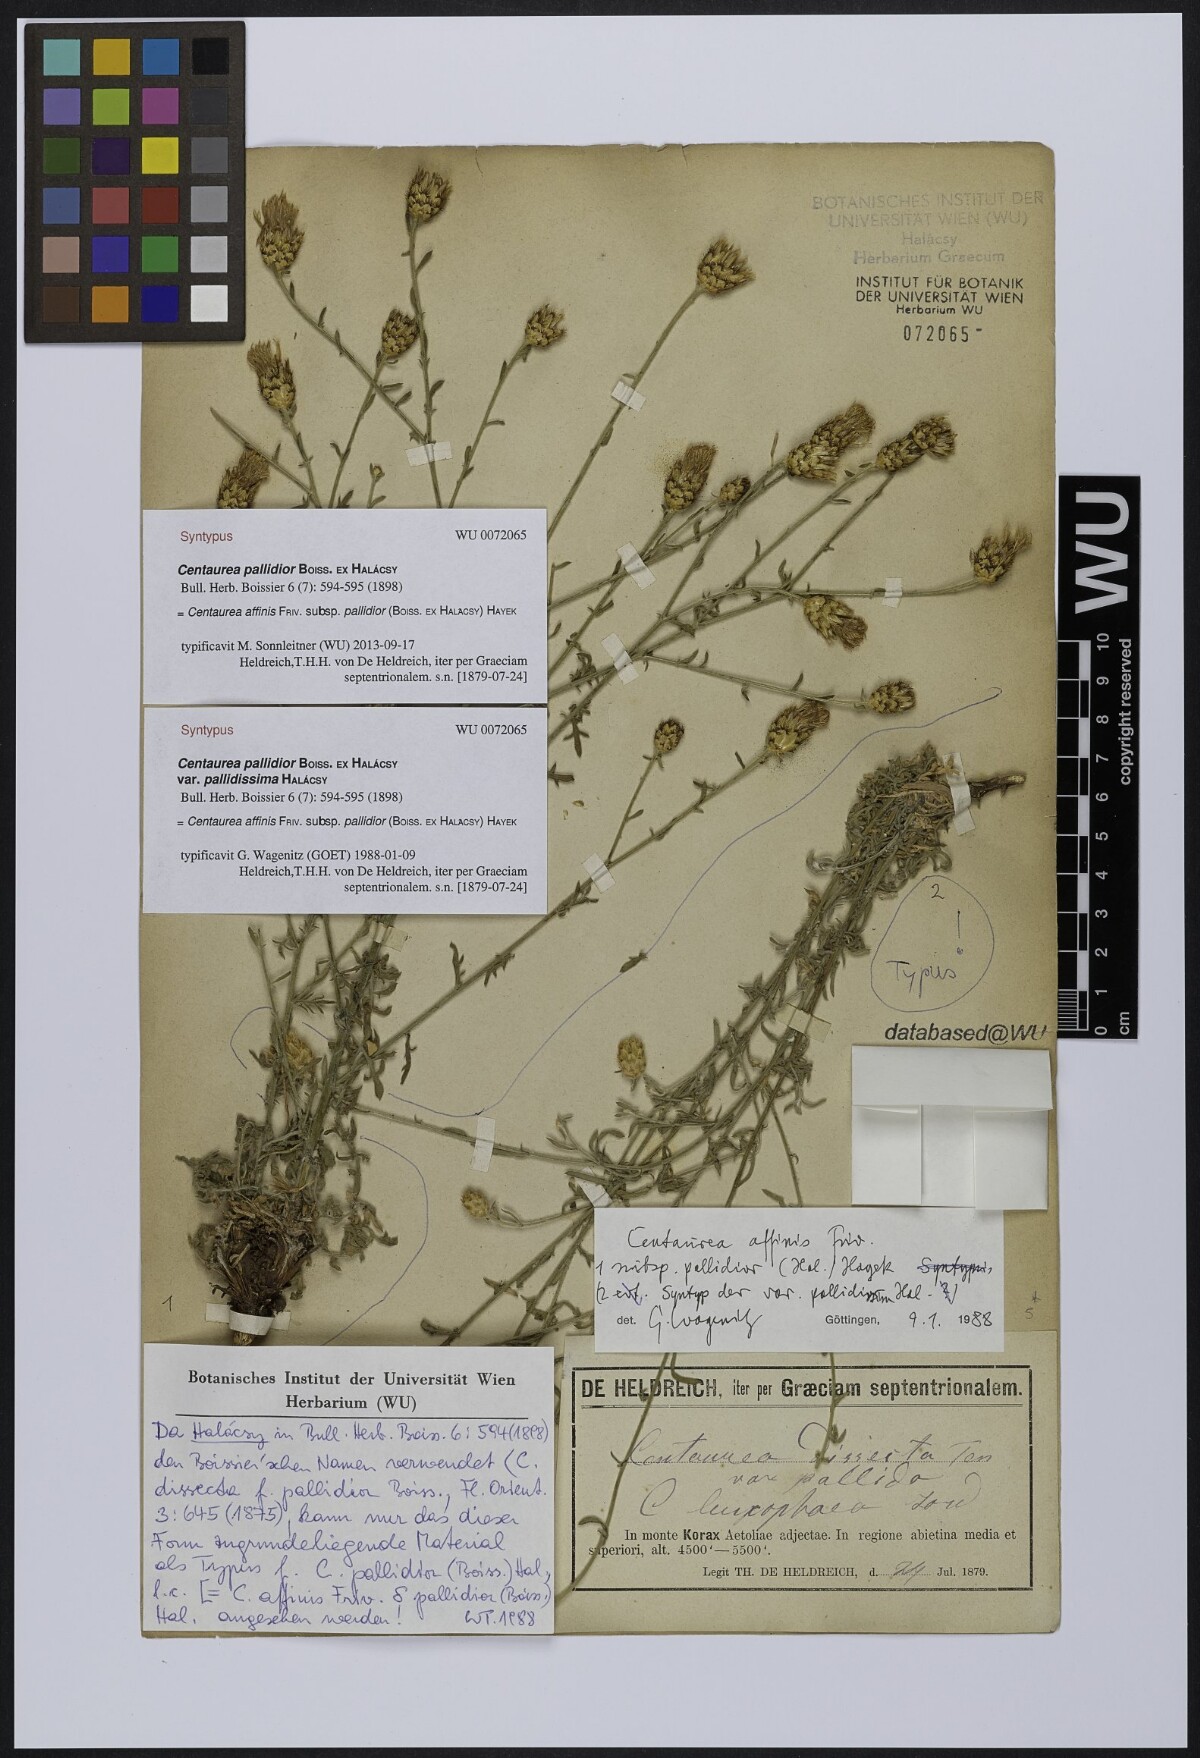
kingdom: Plantae
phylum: Tracheophyta
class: Magnoliopsida
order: Asterales
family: Asteraceae
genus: Centaurea
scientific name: Centaurea affinis
